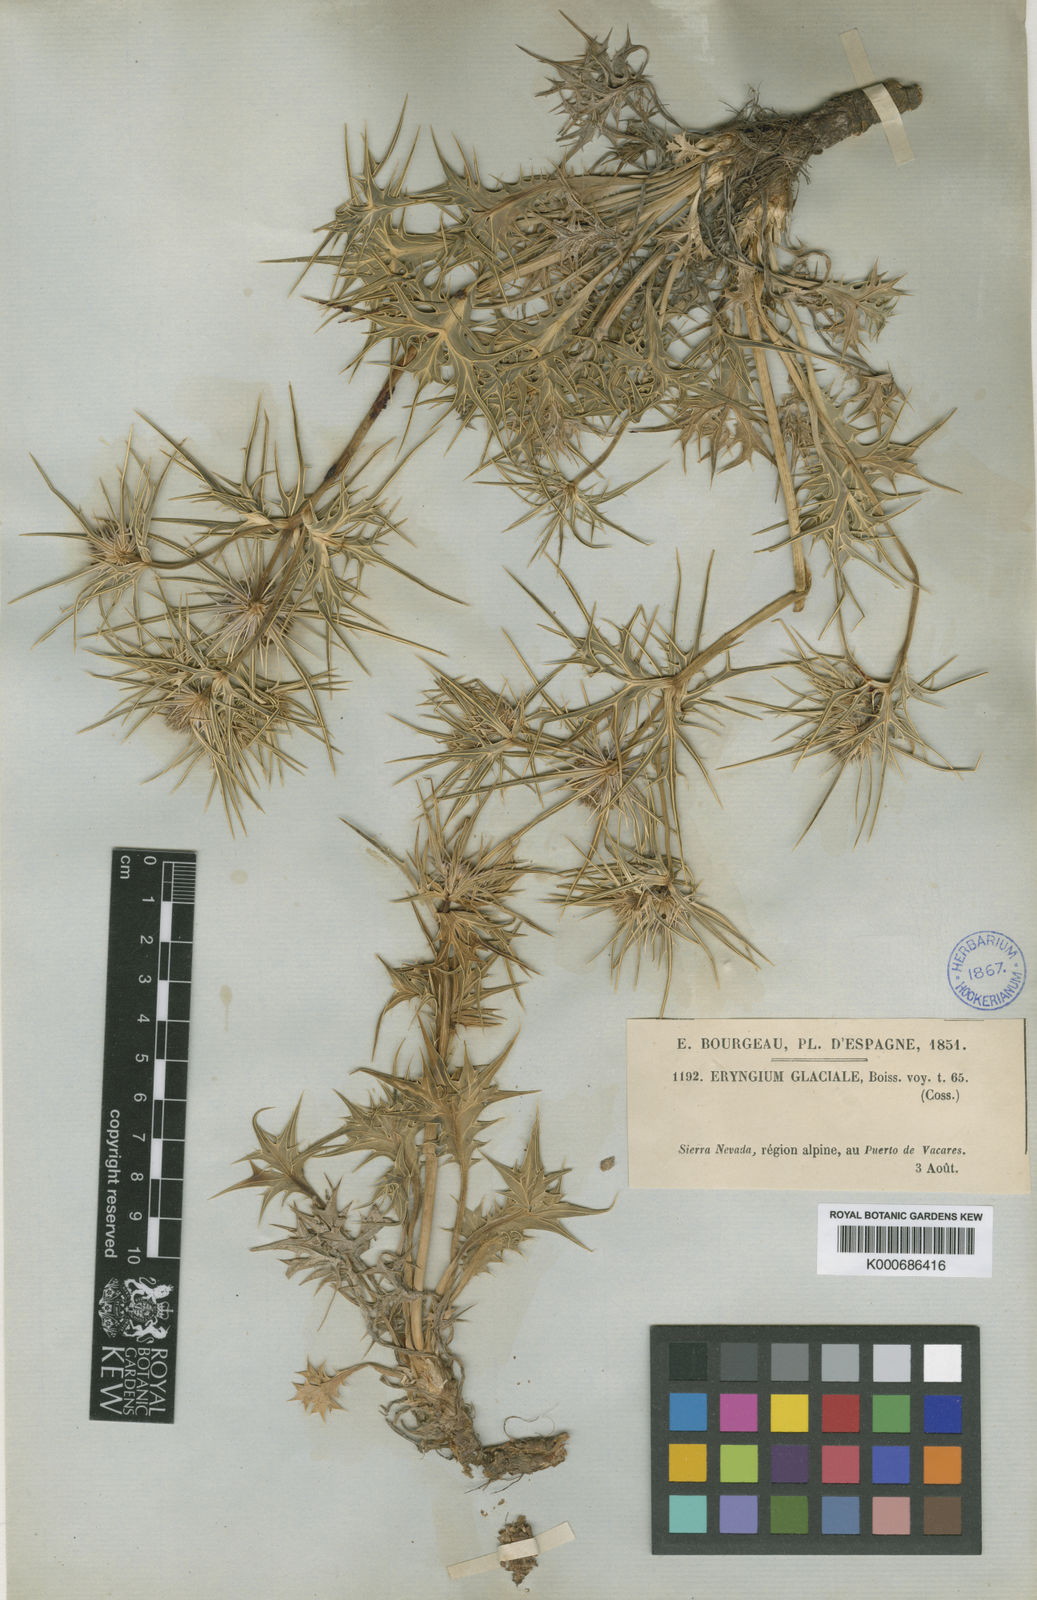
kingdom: Plantae
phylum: Tracheophyta
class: Magnoliopsida
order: Apiales
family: Apiaceae
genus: Eryngium
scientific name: Eryngium glaciale
